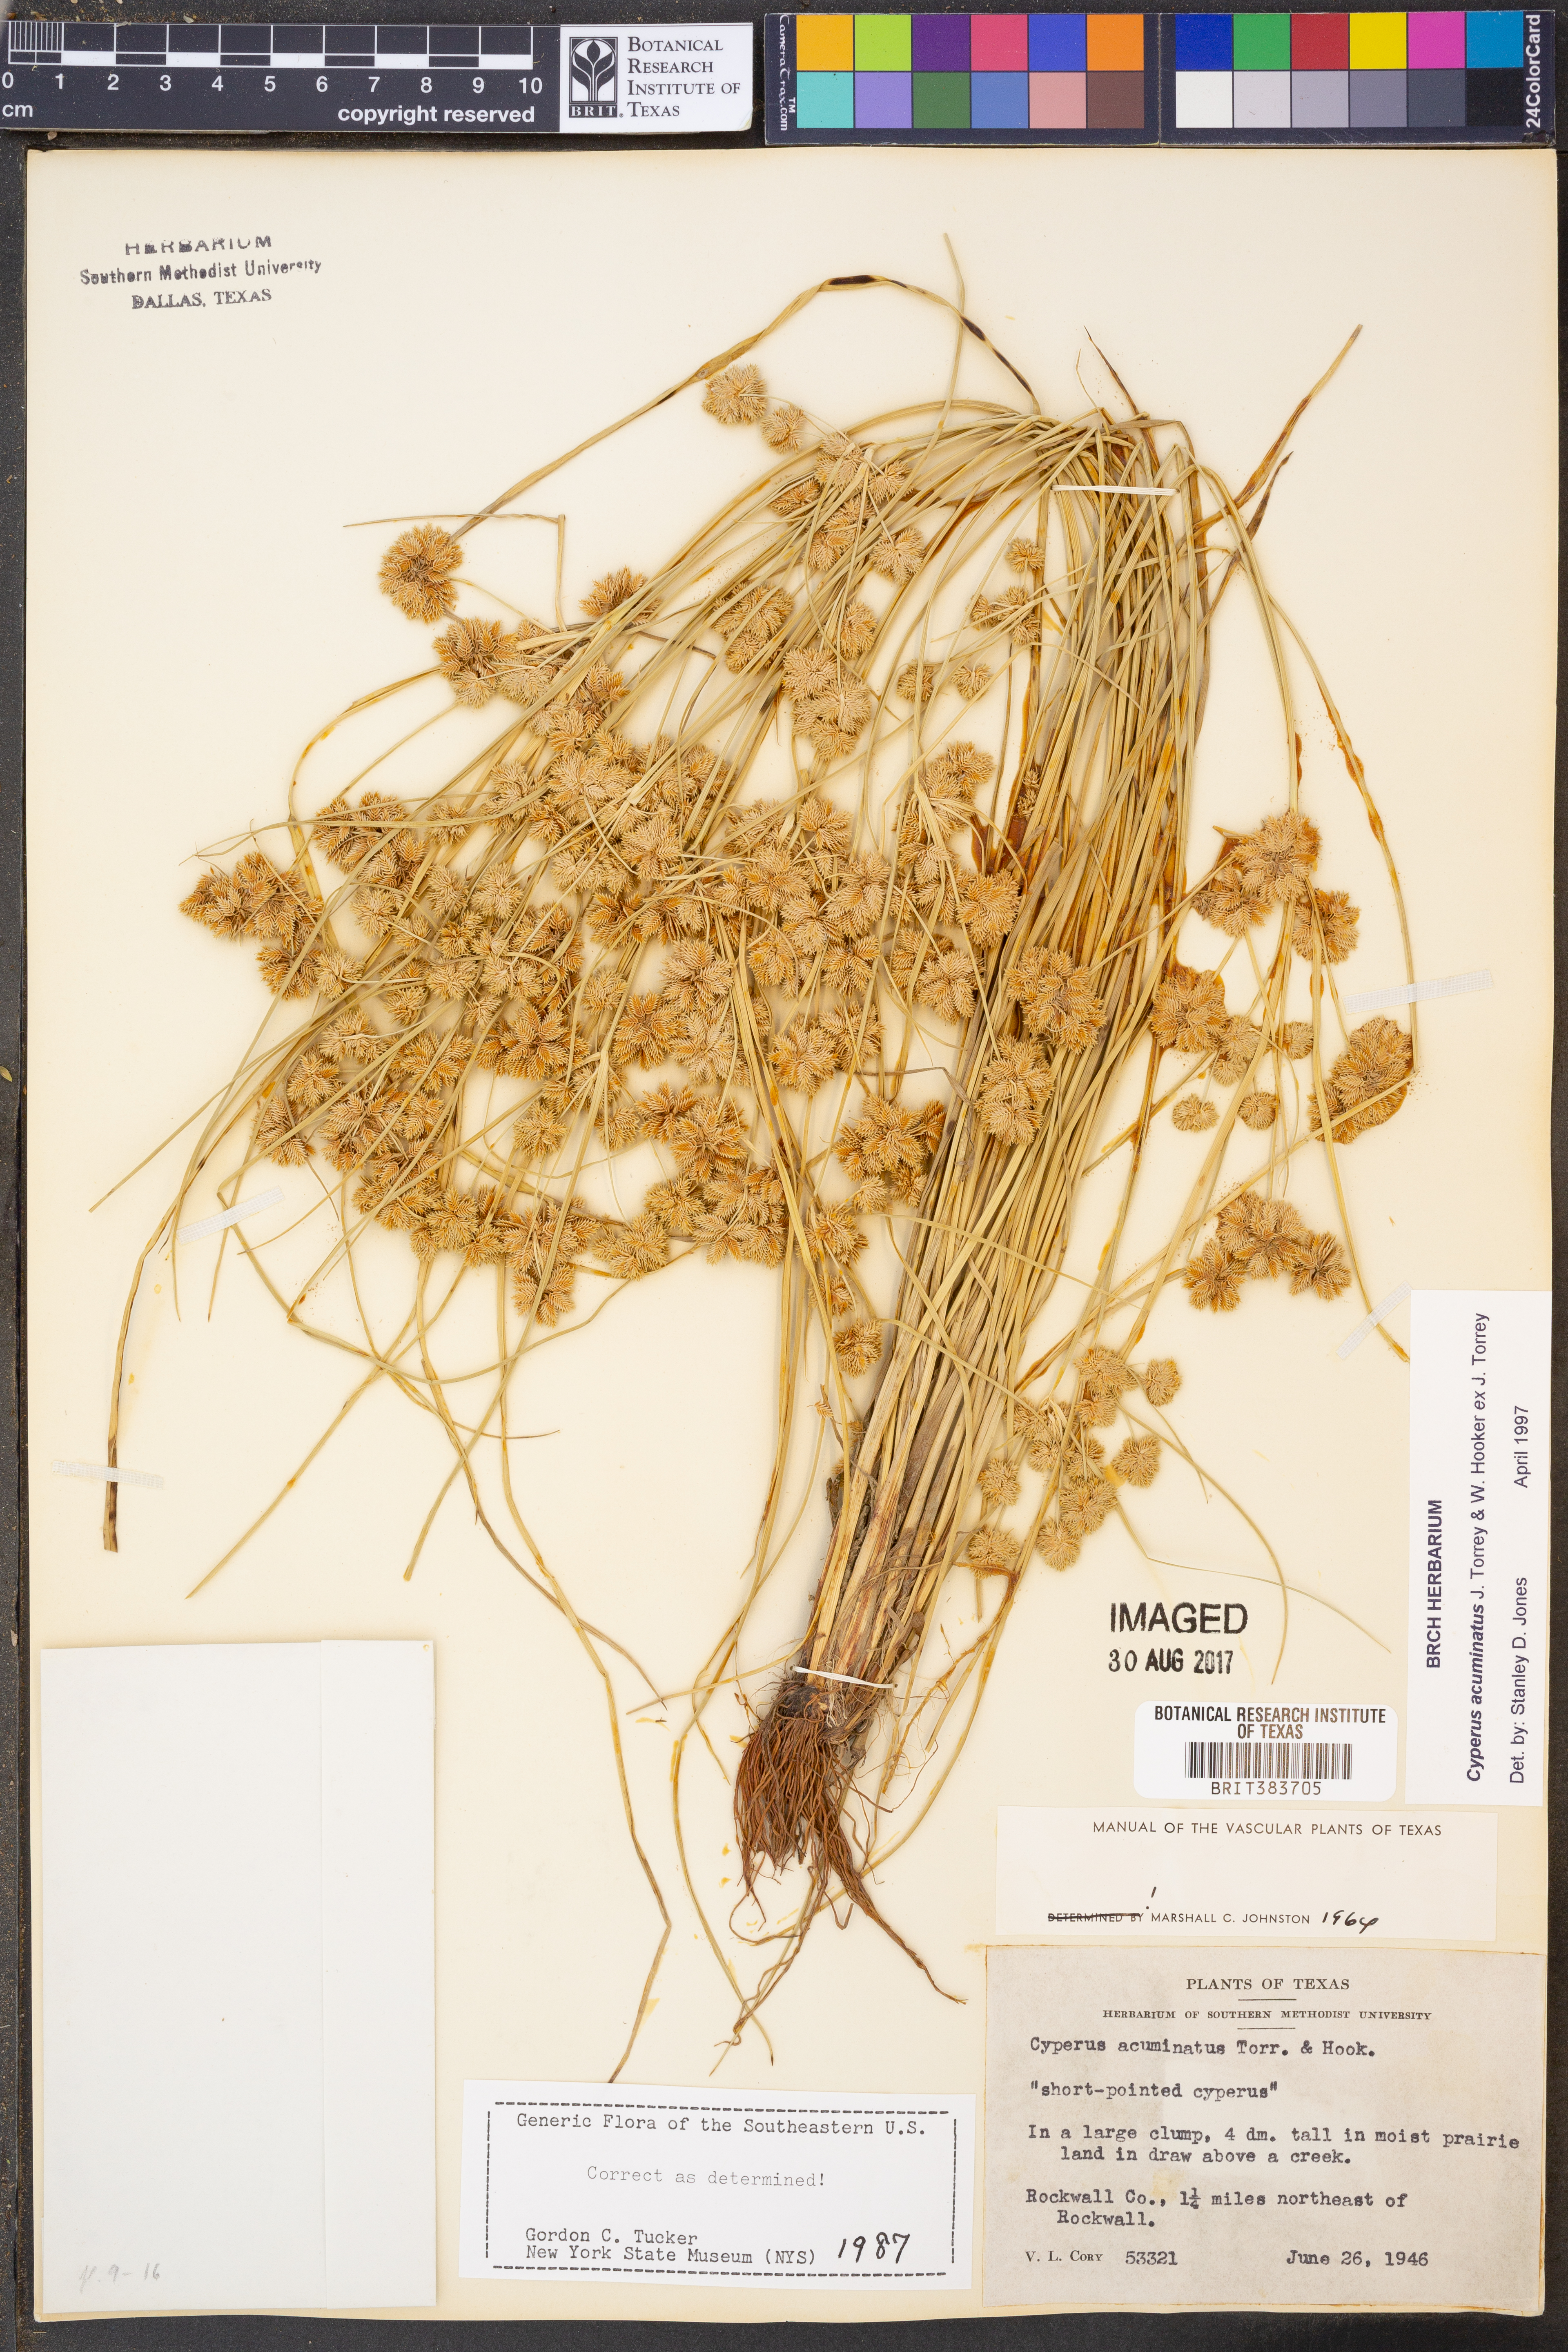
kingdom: Plantae
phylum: Tracheophyta
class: Liliopsida
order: Poales
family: Cyperaceae
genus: Cyperus
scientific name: Cyperus acuminatus
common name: Short-pointed cyperus
